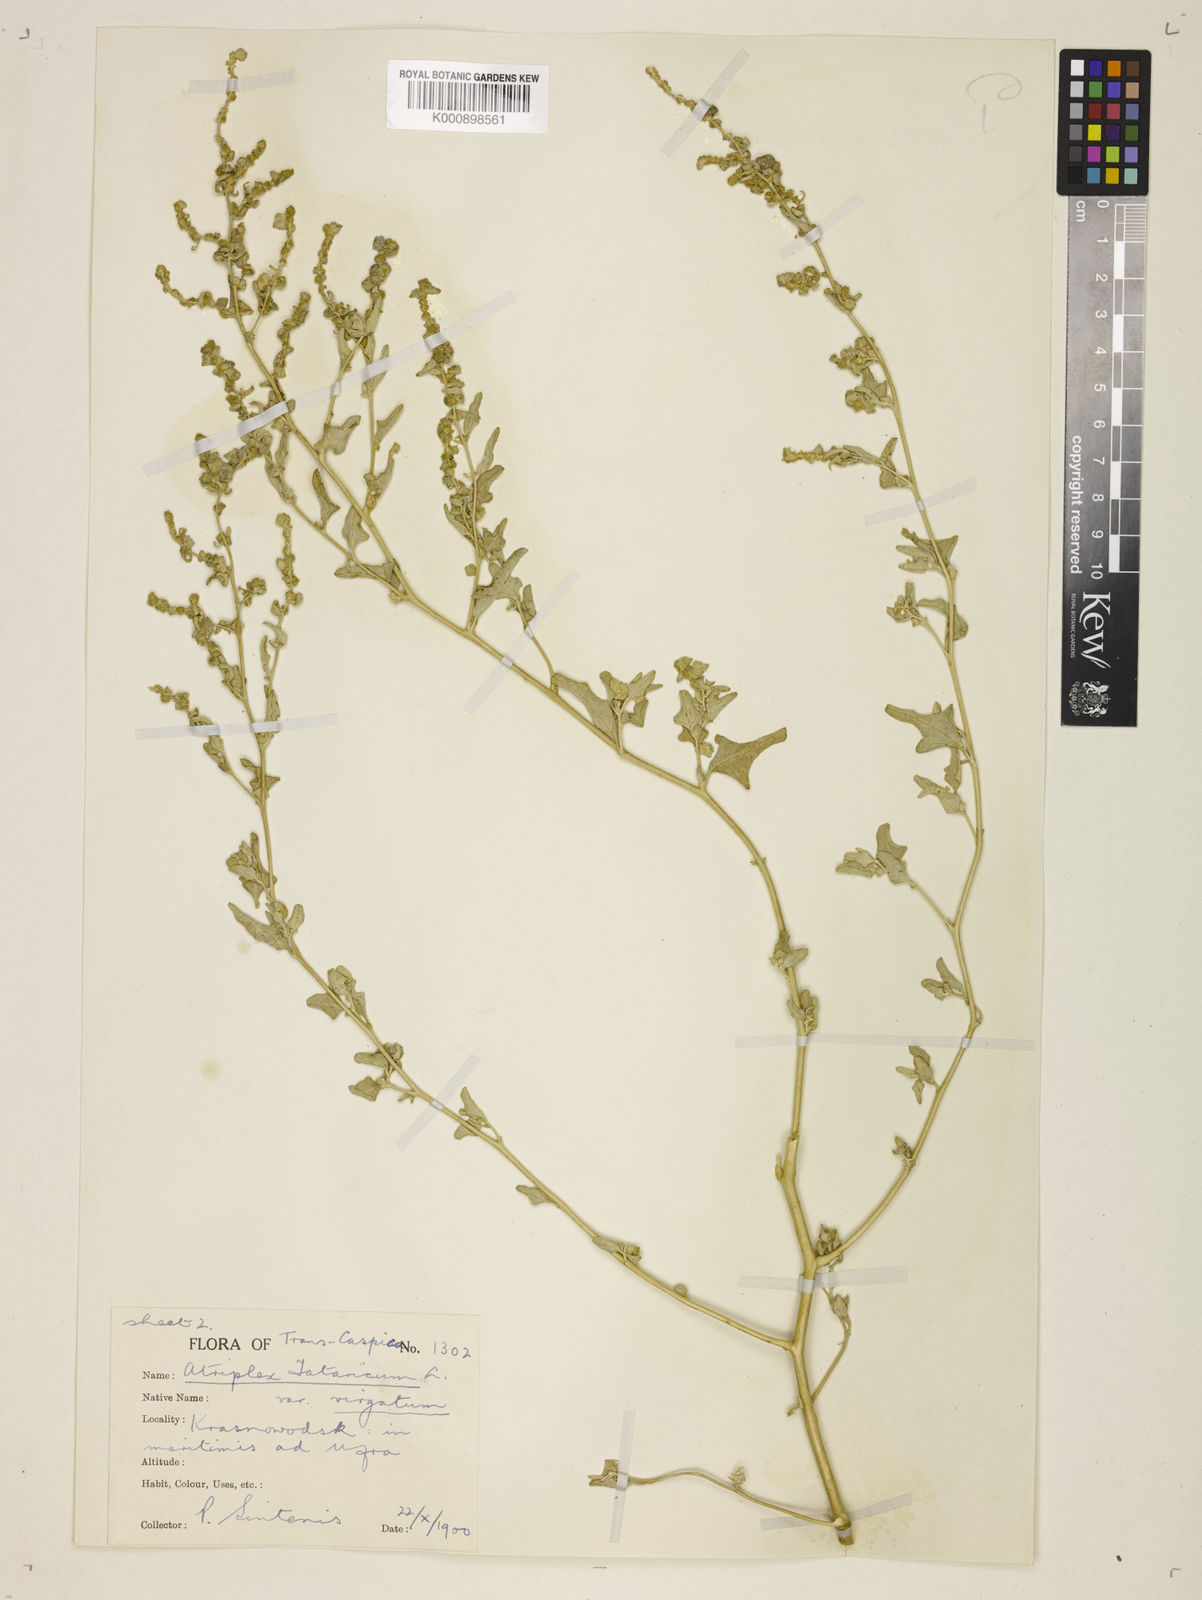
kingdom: Plantae
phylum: Tracheophyta
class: Magnoliopsida
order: Caryophyllales
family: Amaranthaceae
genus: Atriplex
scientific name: Atriplex tatarica
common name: Tatarian orache
